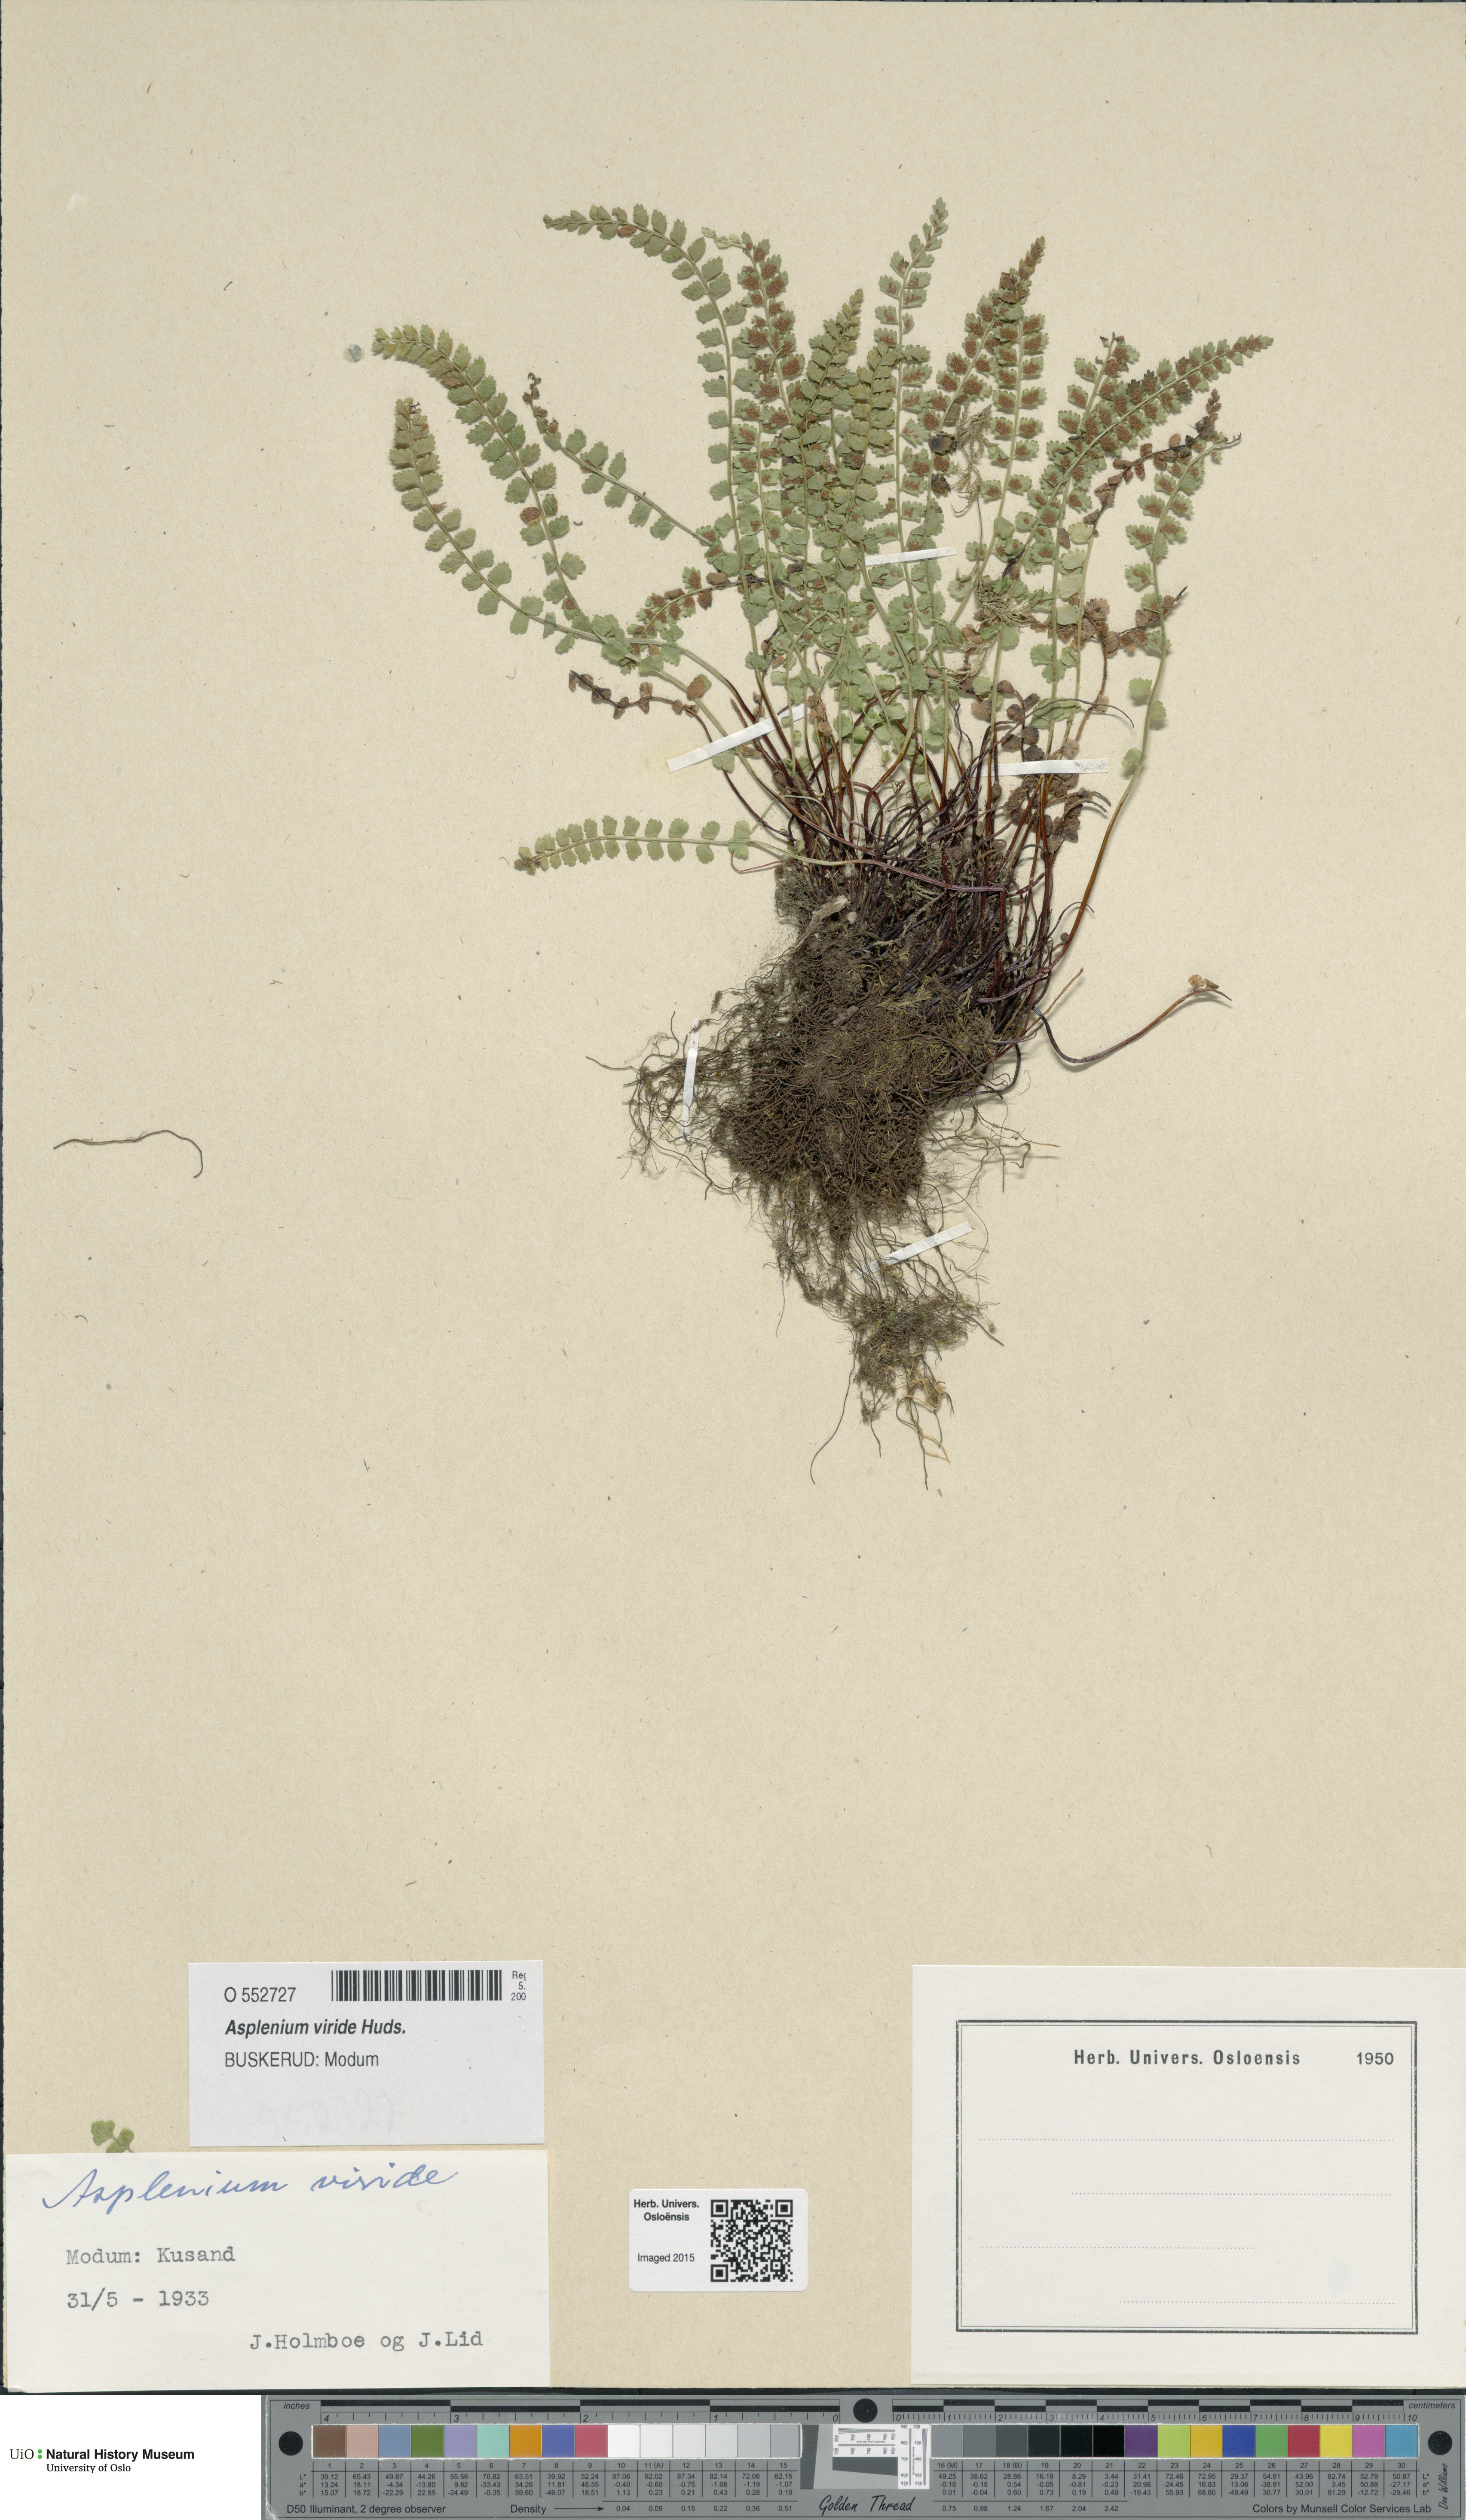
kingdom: Plantae
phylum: Tracheophyta
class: Polypodiopsida
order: Polypodiales
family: Aspleniaceae
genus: Asplenium
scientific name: Asplenium viride
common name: Green spleenwort
